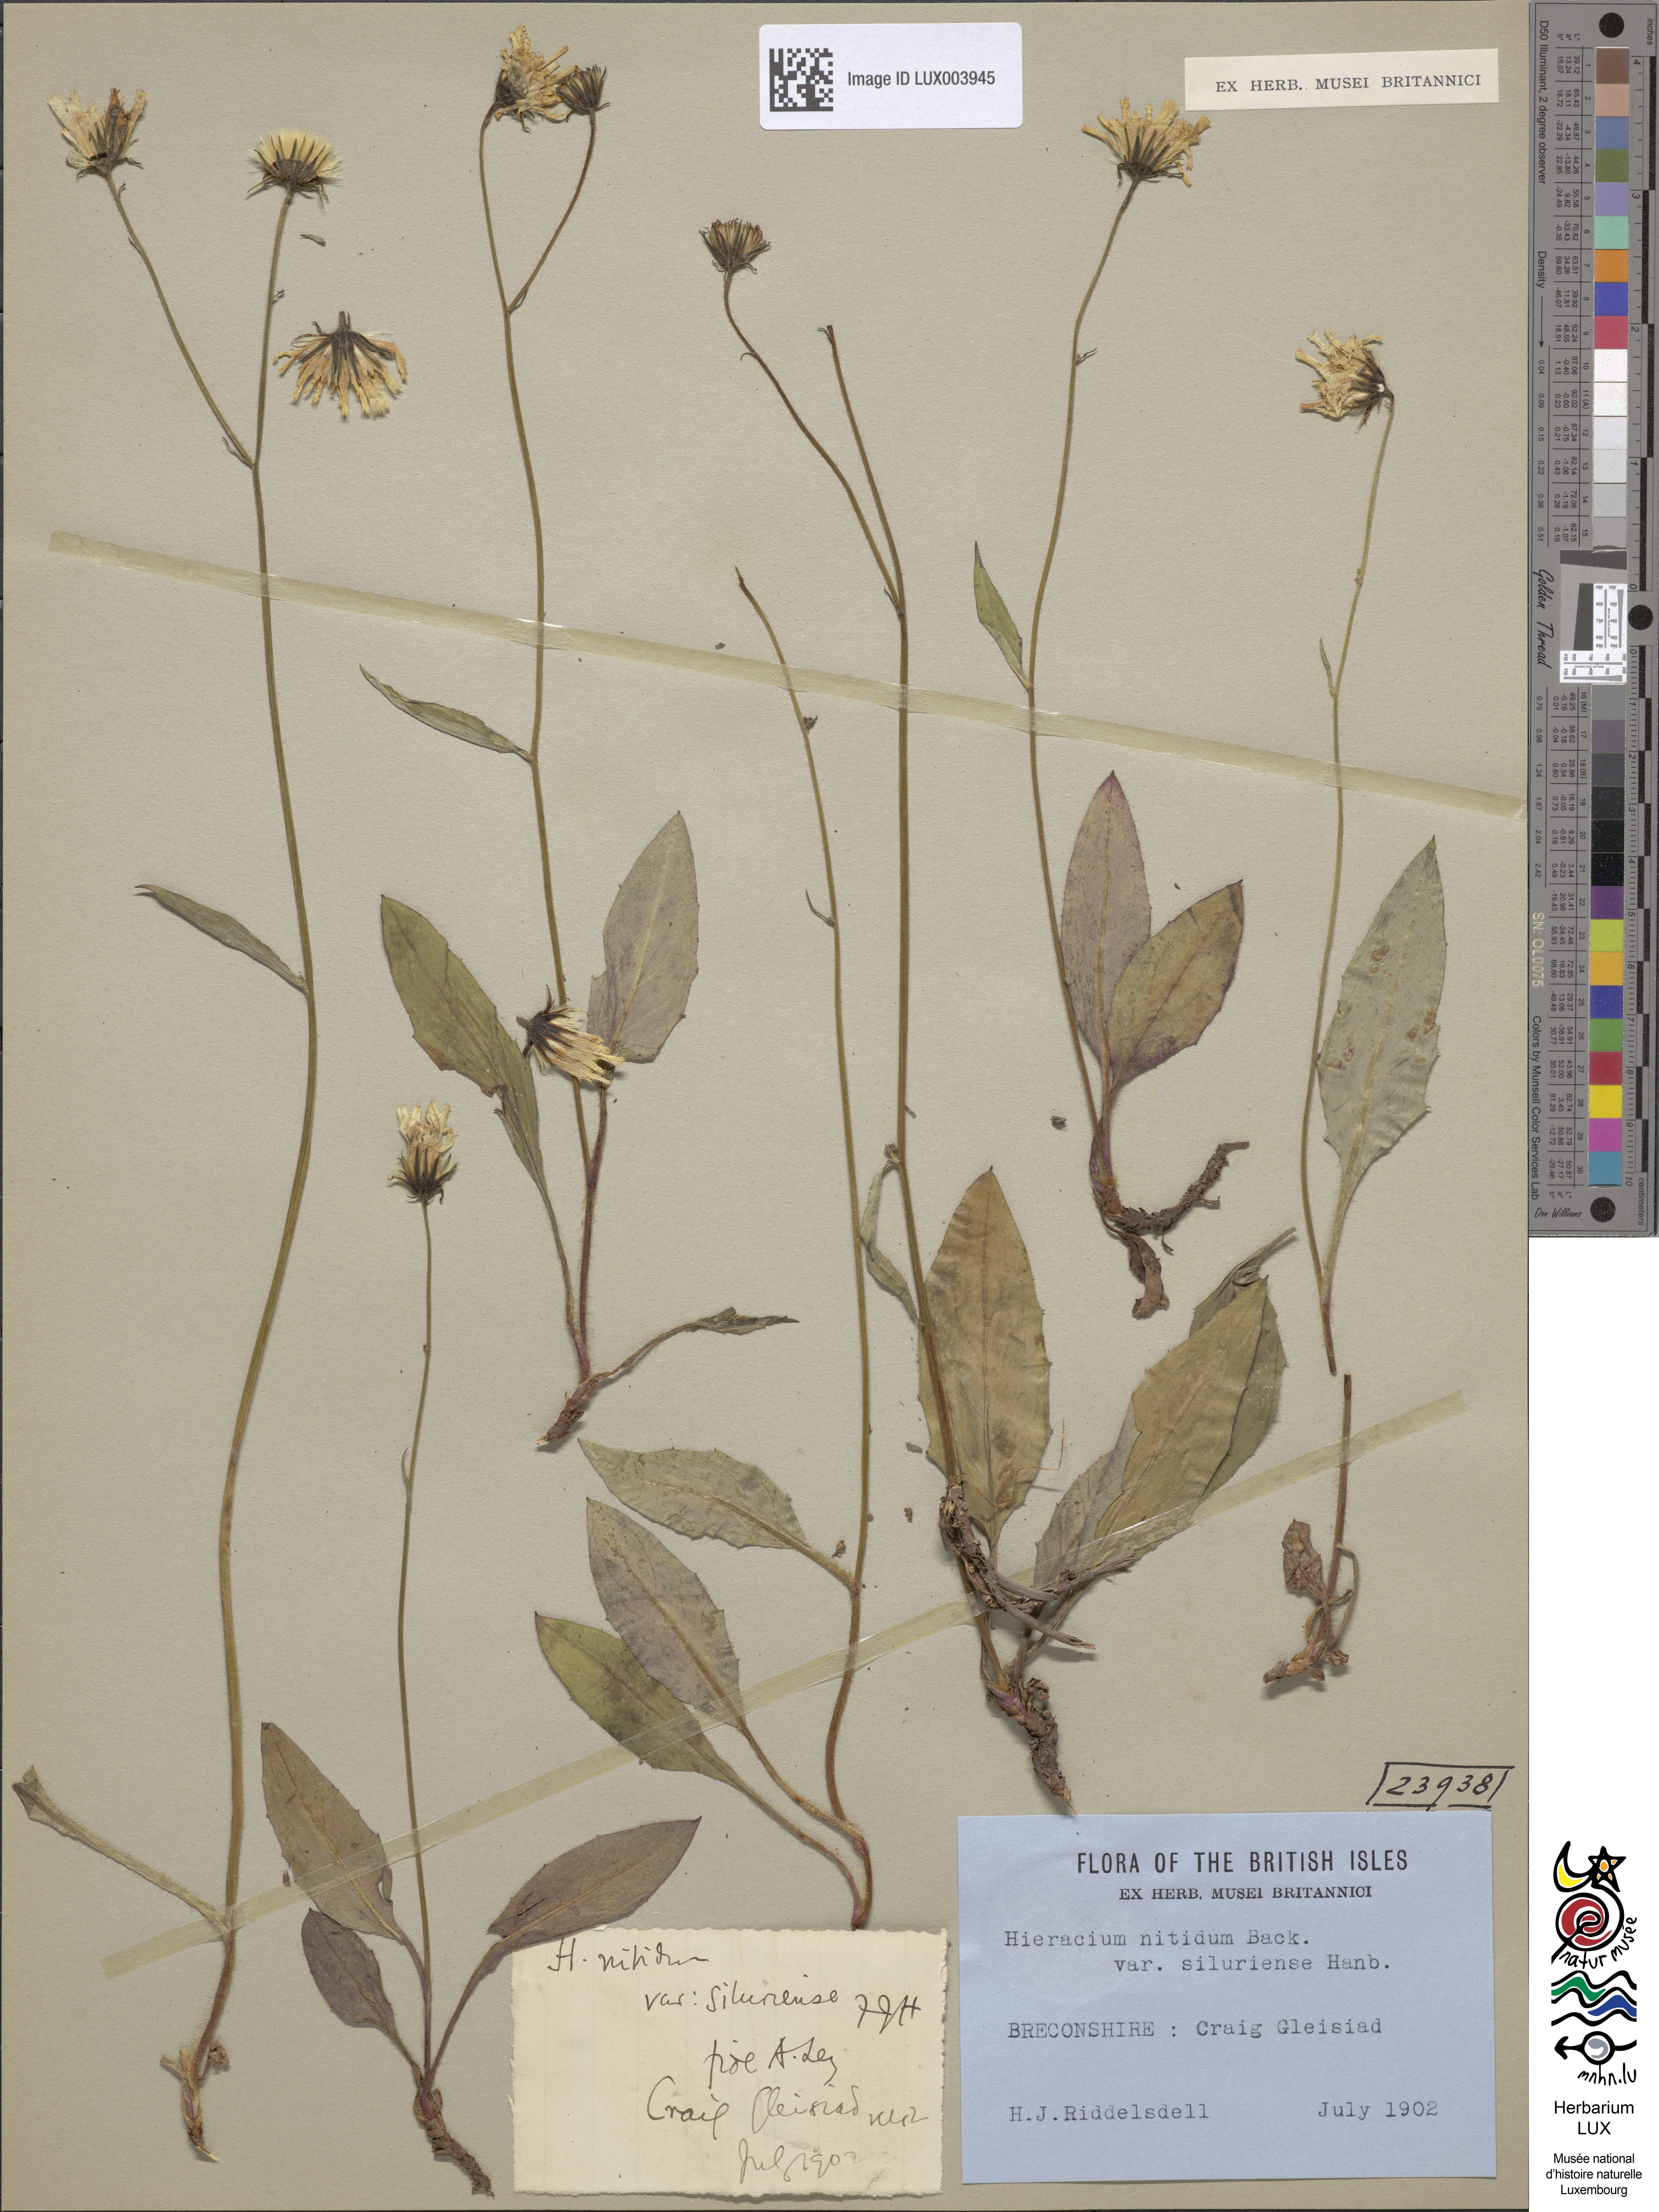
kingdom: Plantae
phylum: Tracheophyta
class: Magnoliopsida
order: Asterales
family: Asteraceae
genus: Hieracium
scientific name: Hieracium siluriense
